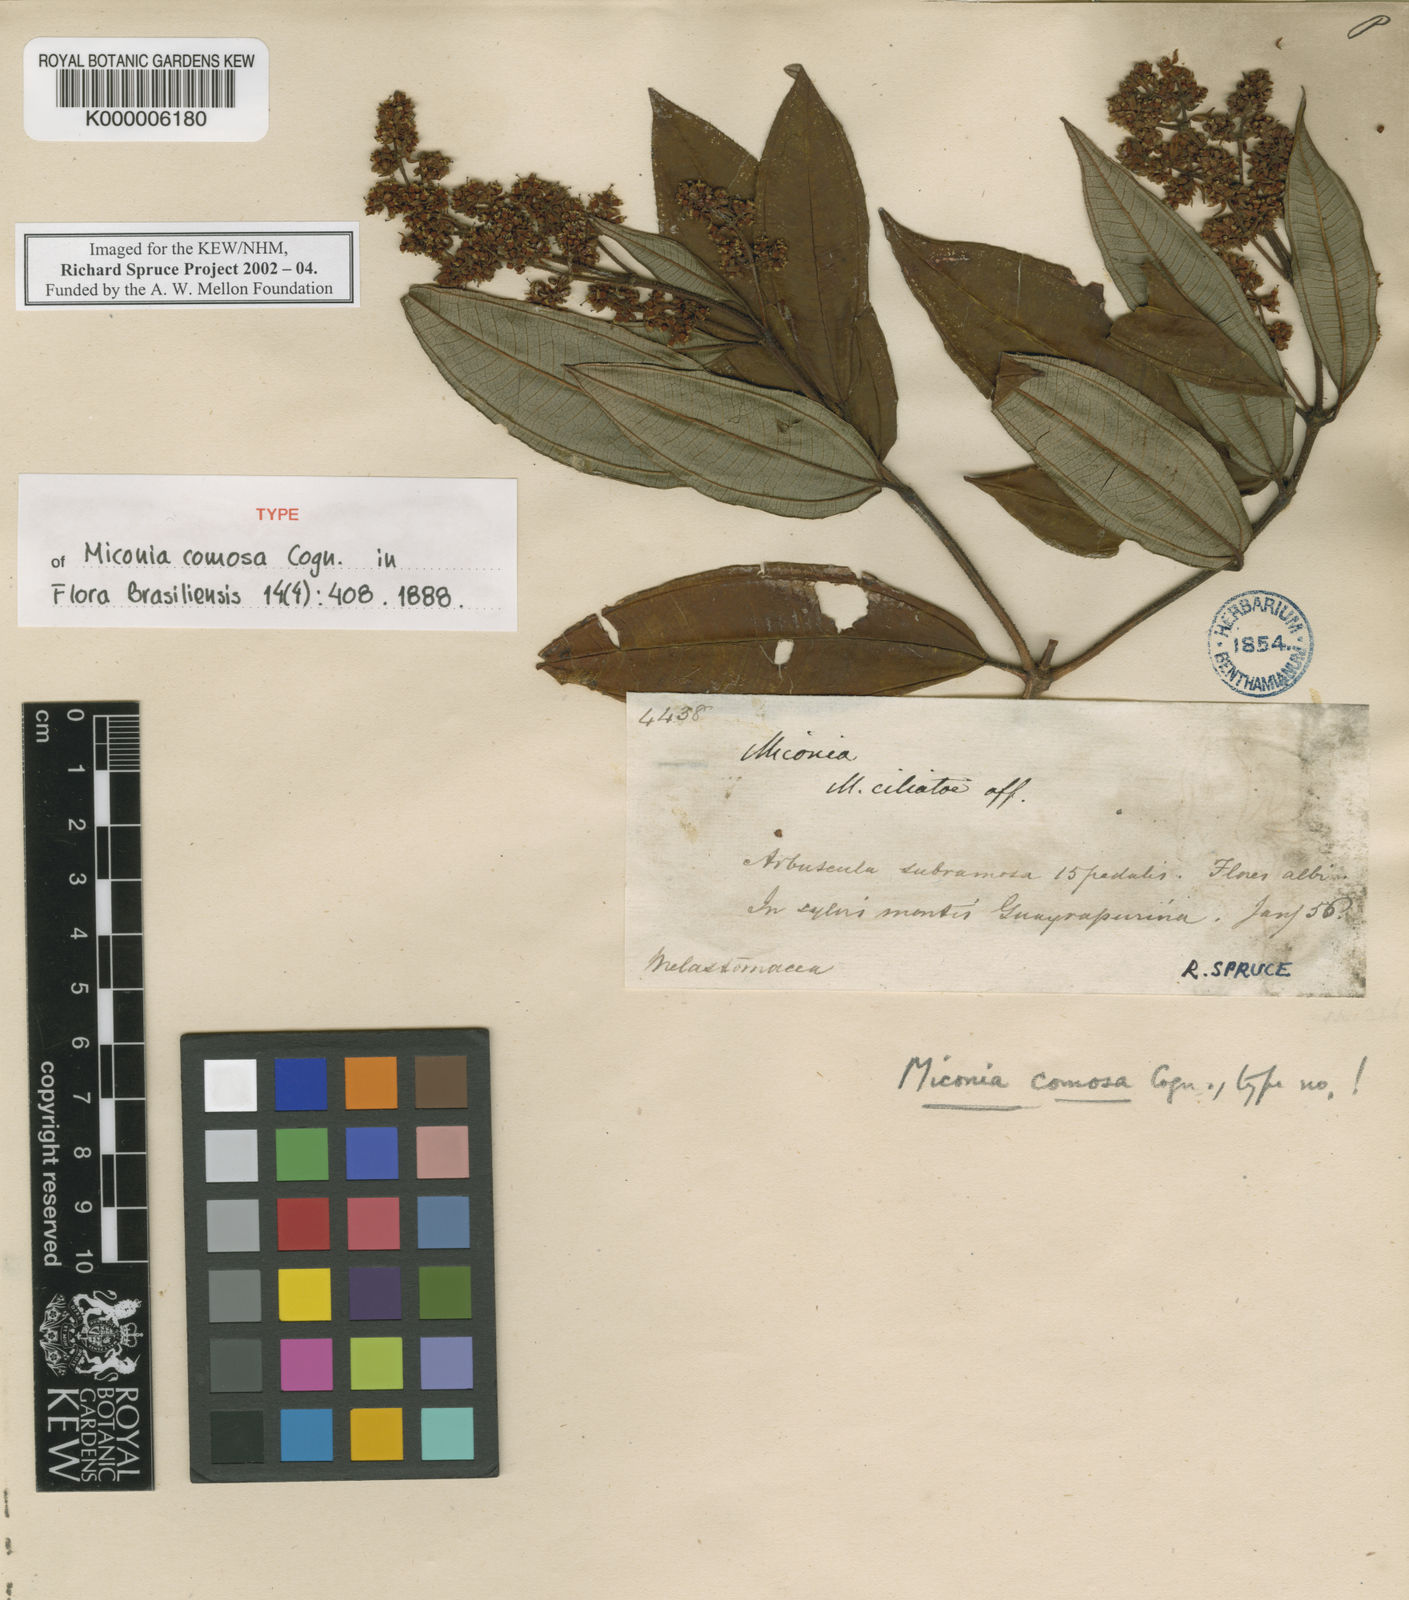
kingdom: Plantae
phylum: Tracheophyta
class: Magnoliopsida
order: Myrtales
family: Melastomataceae
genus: Miconia
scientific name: Miconia comosa
